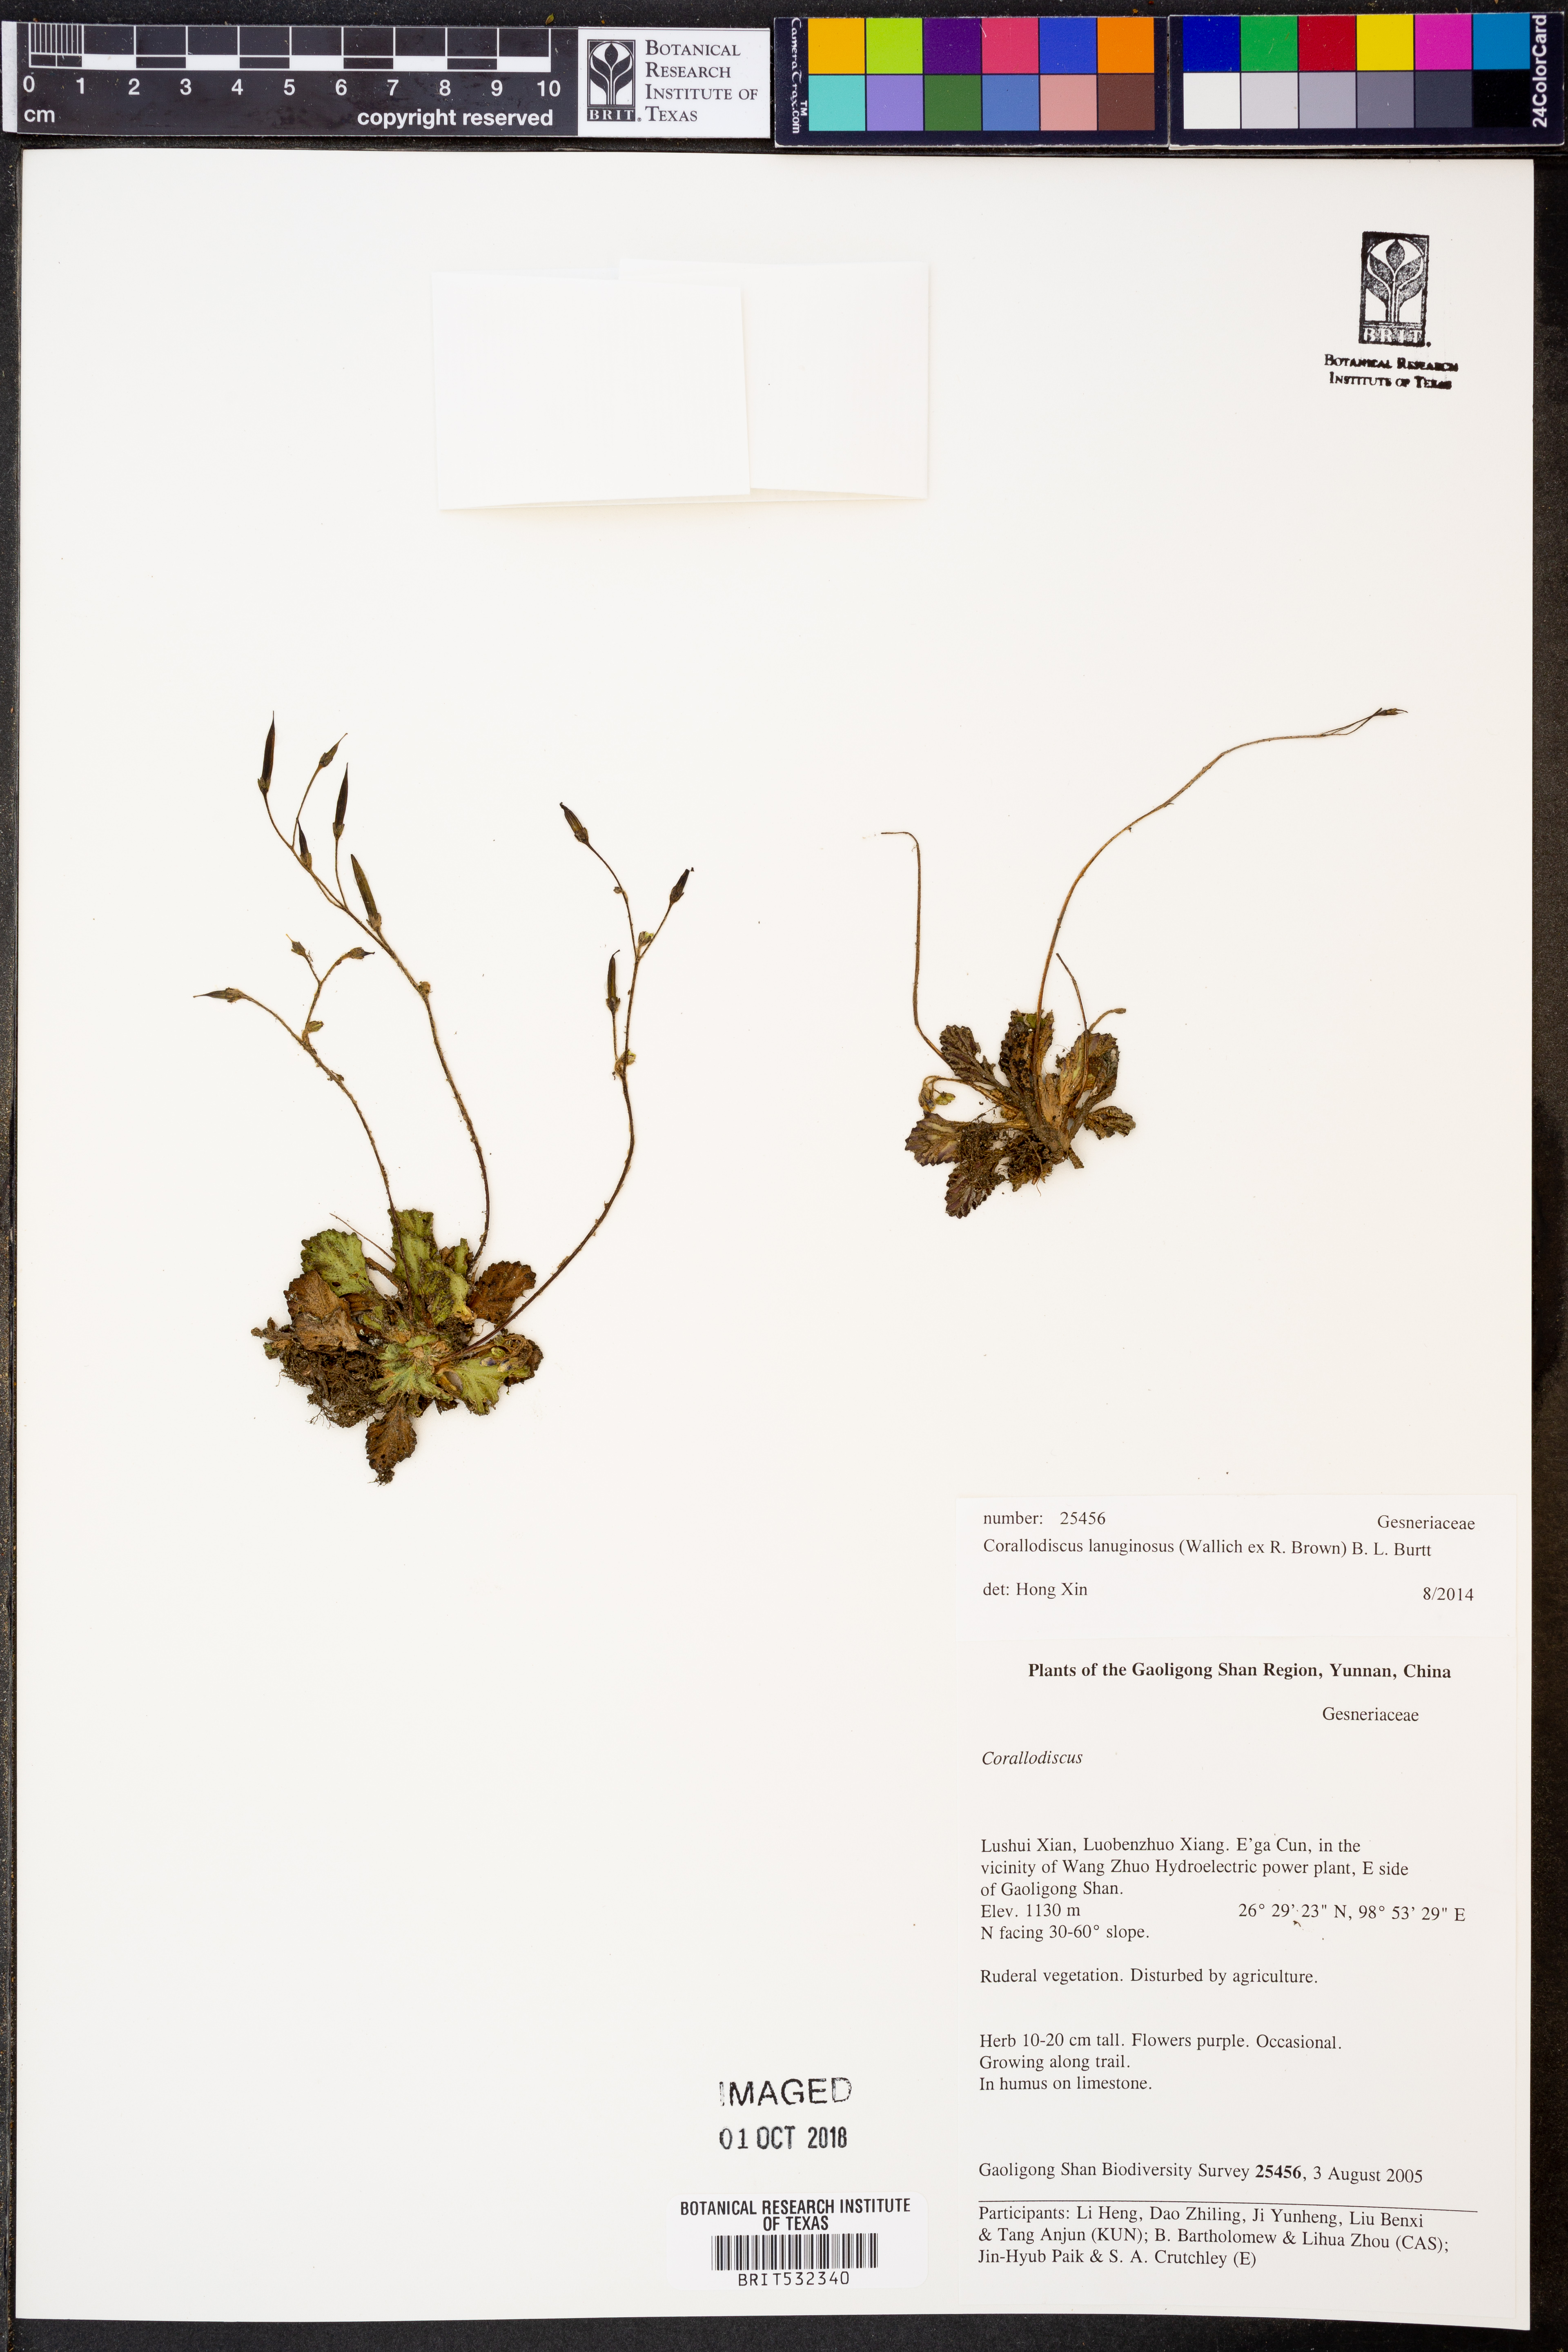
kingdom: Plantae
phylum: Tracheophyta
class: Magnoliopsida
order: Lamiales
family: Gesneriaceae
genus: Corallodiscus
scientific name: Corallodiscus lanuginosus
